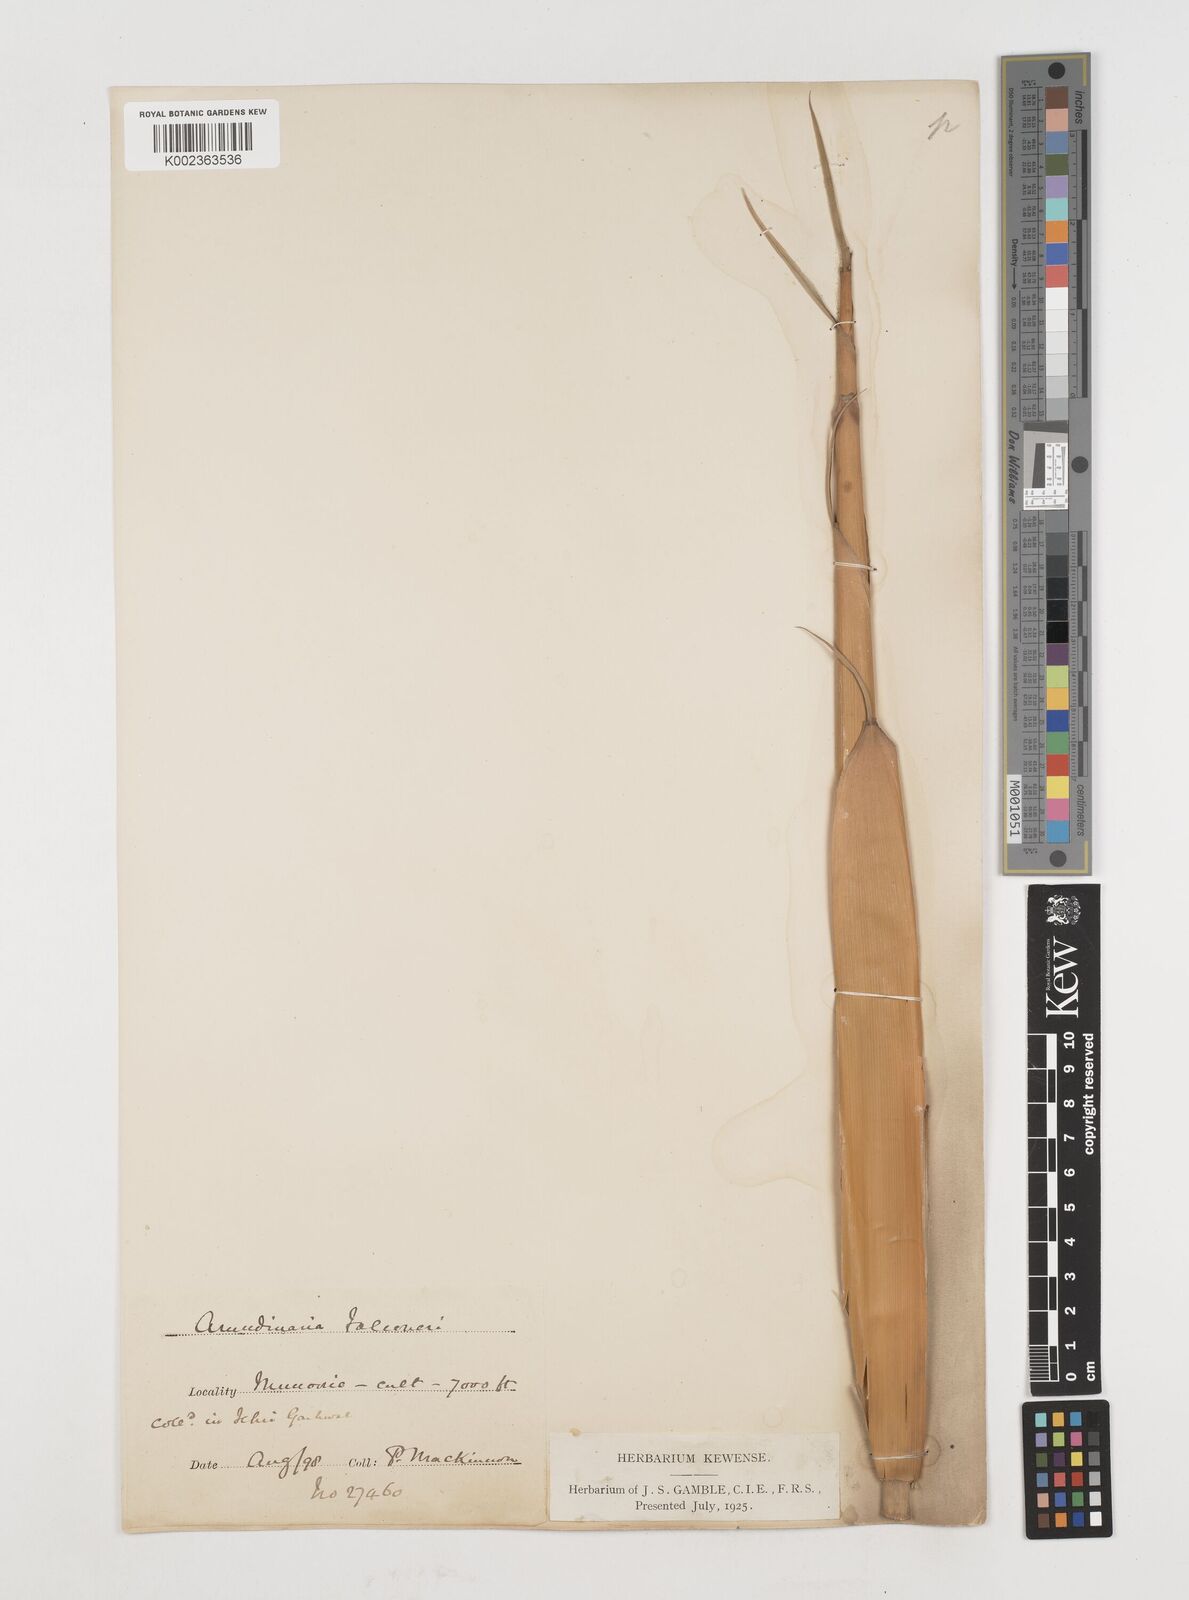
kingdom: Plantae
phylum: Tracheophyta
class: Liliopsida
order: Poales
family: Poaceae
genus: Himalayacalamus
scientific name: Himalayacalamus falconeri
